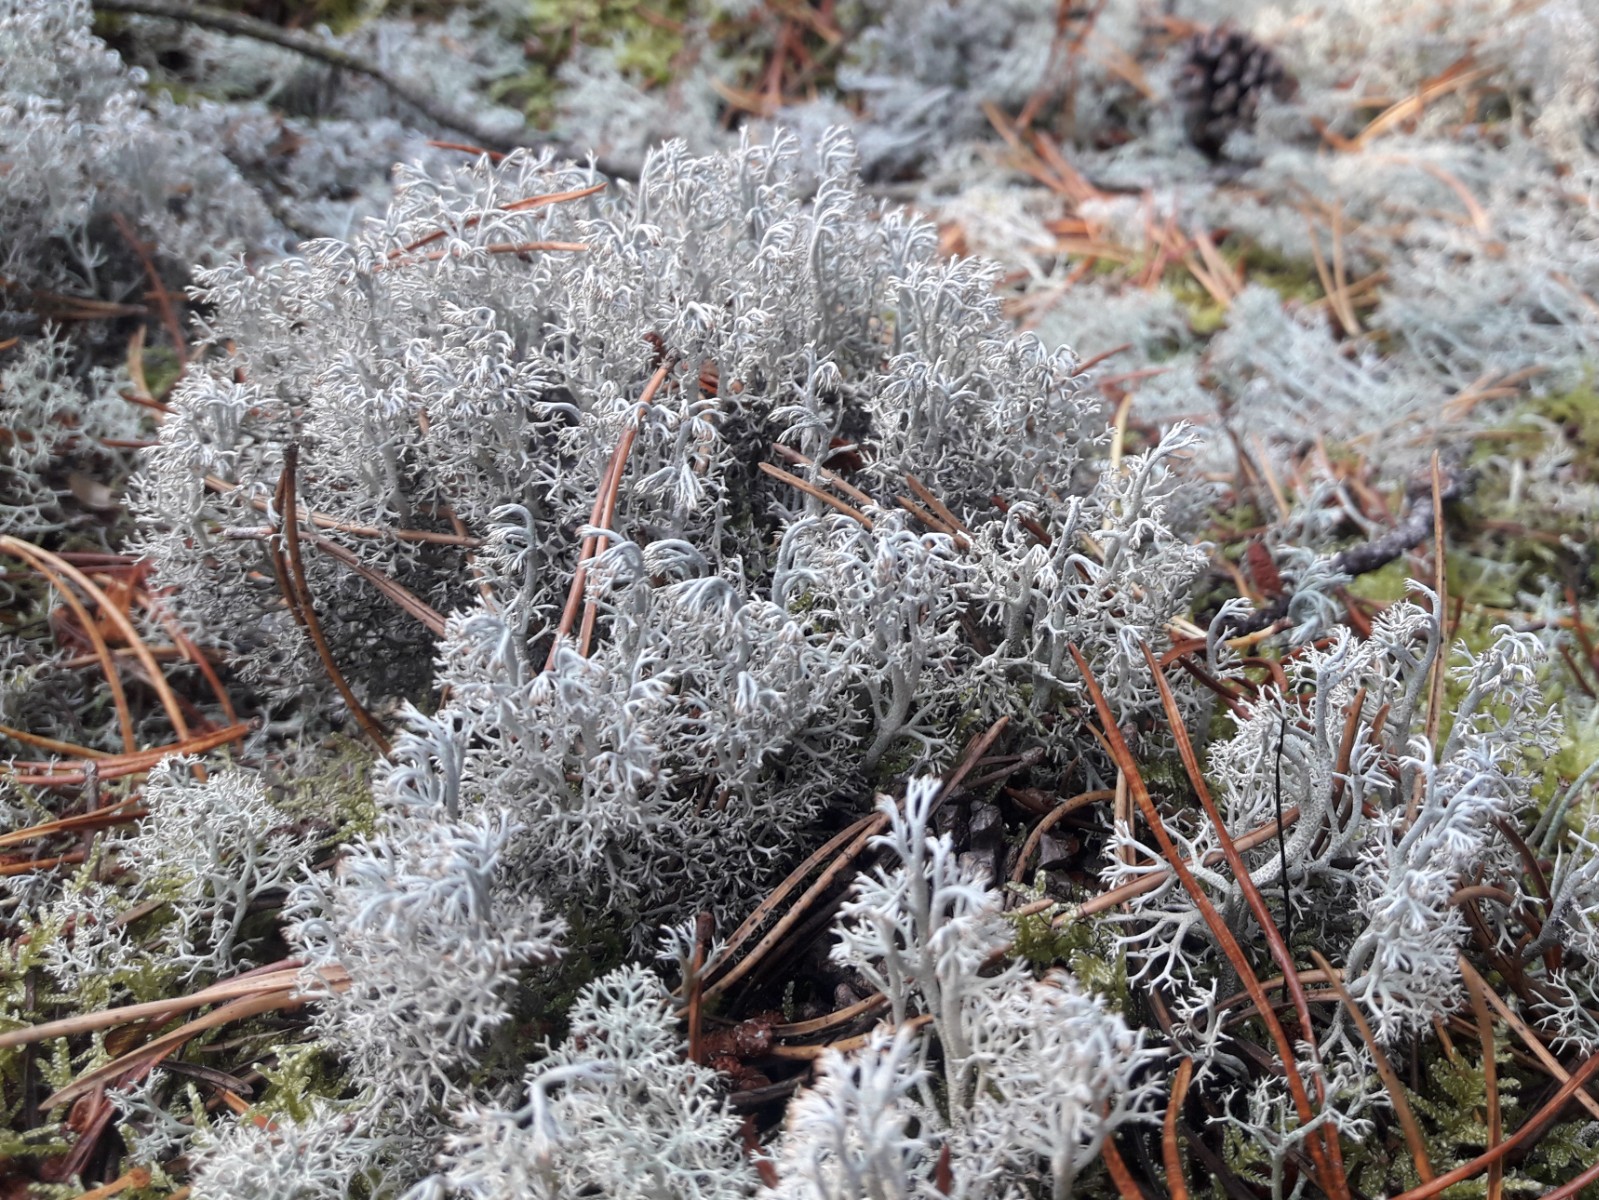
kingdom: Fungi
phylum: Ascomycota
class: Lecanoromycetes
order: Lecanorales
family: Cladoniaceae
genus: Cladonia
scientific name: Cladonia stygia
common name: styg rensdyrlav
